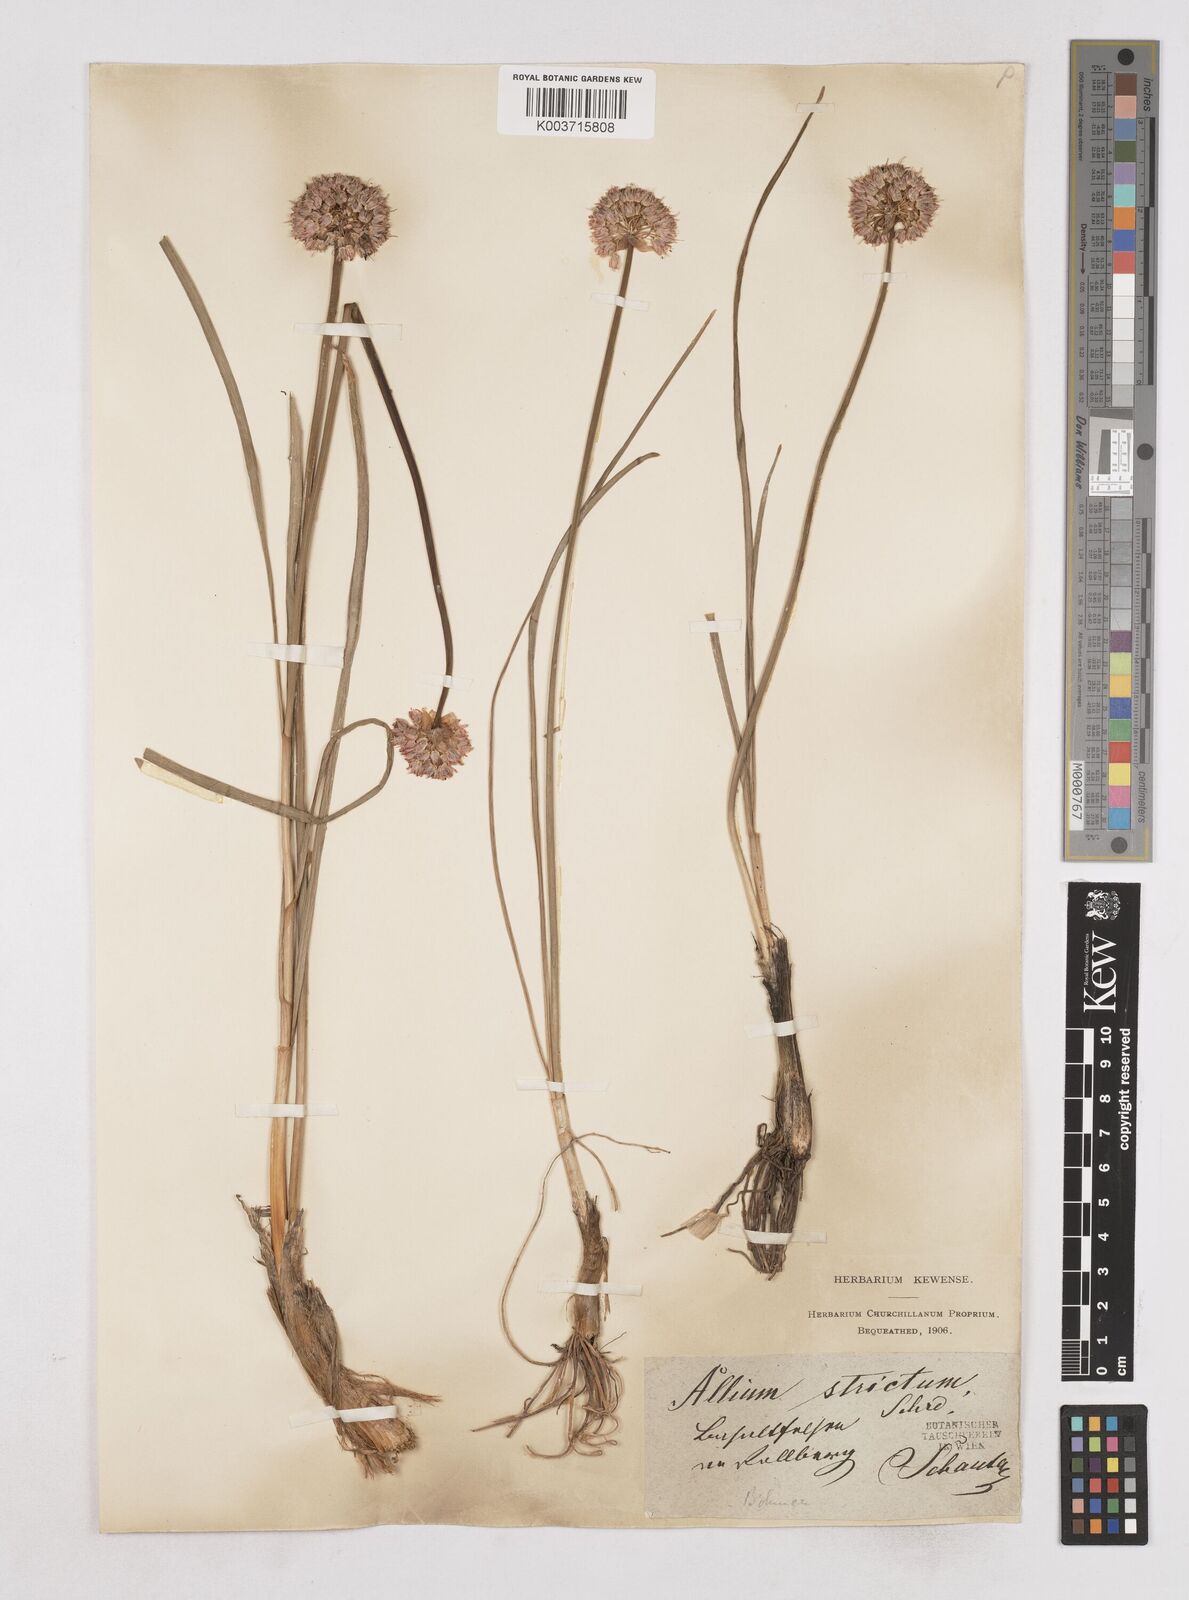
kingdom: Plantae
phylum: Tracheophyta
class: Liliopsida
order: Asparagales
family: Amaryllidaceae
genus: Allium
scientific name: Allium strictum
